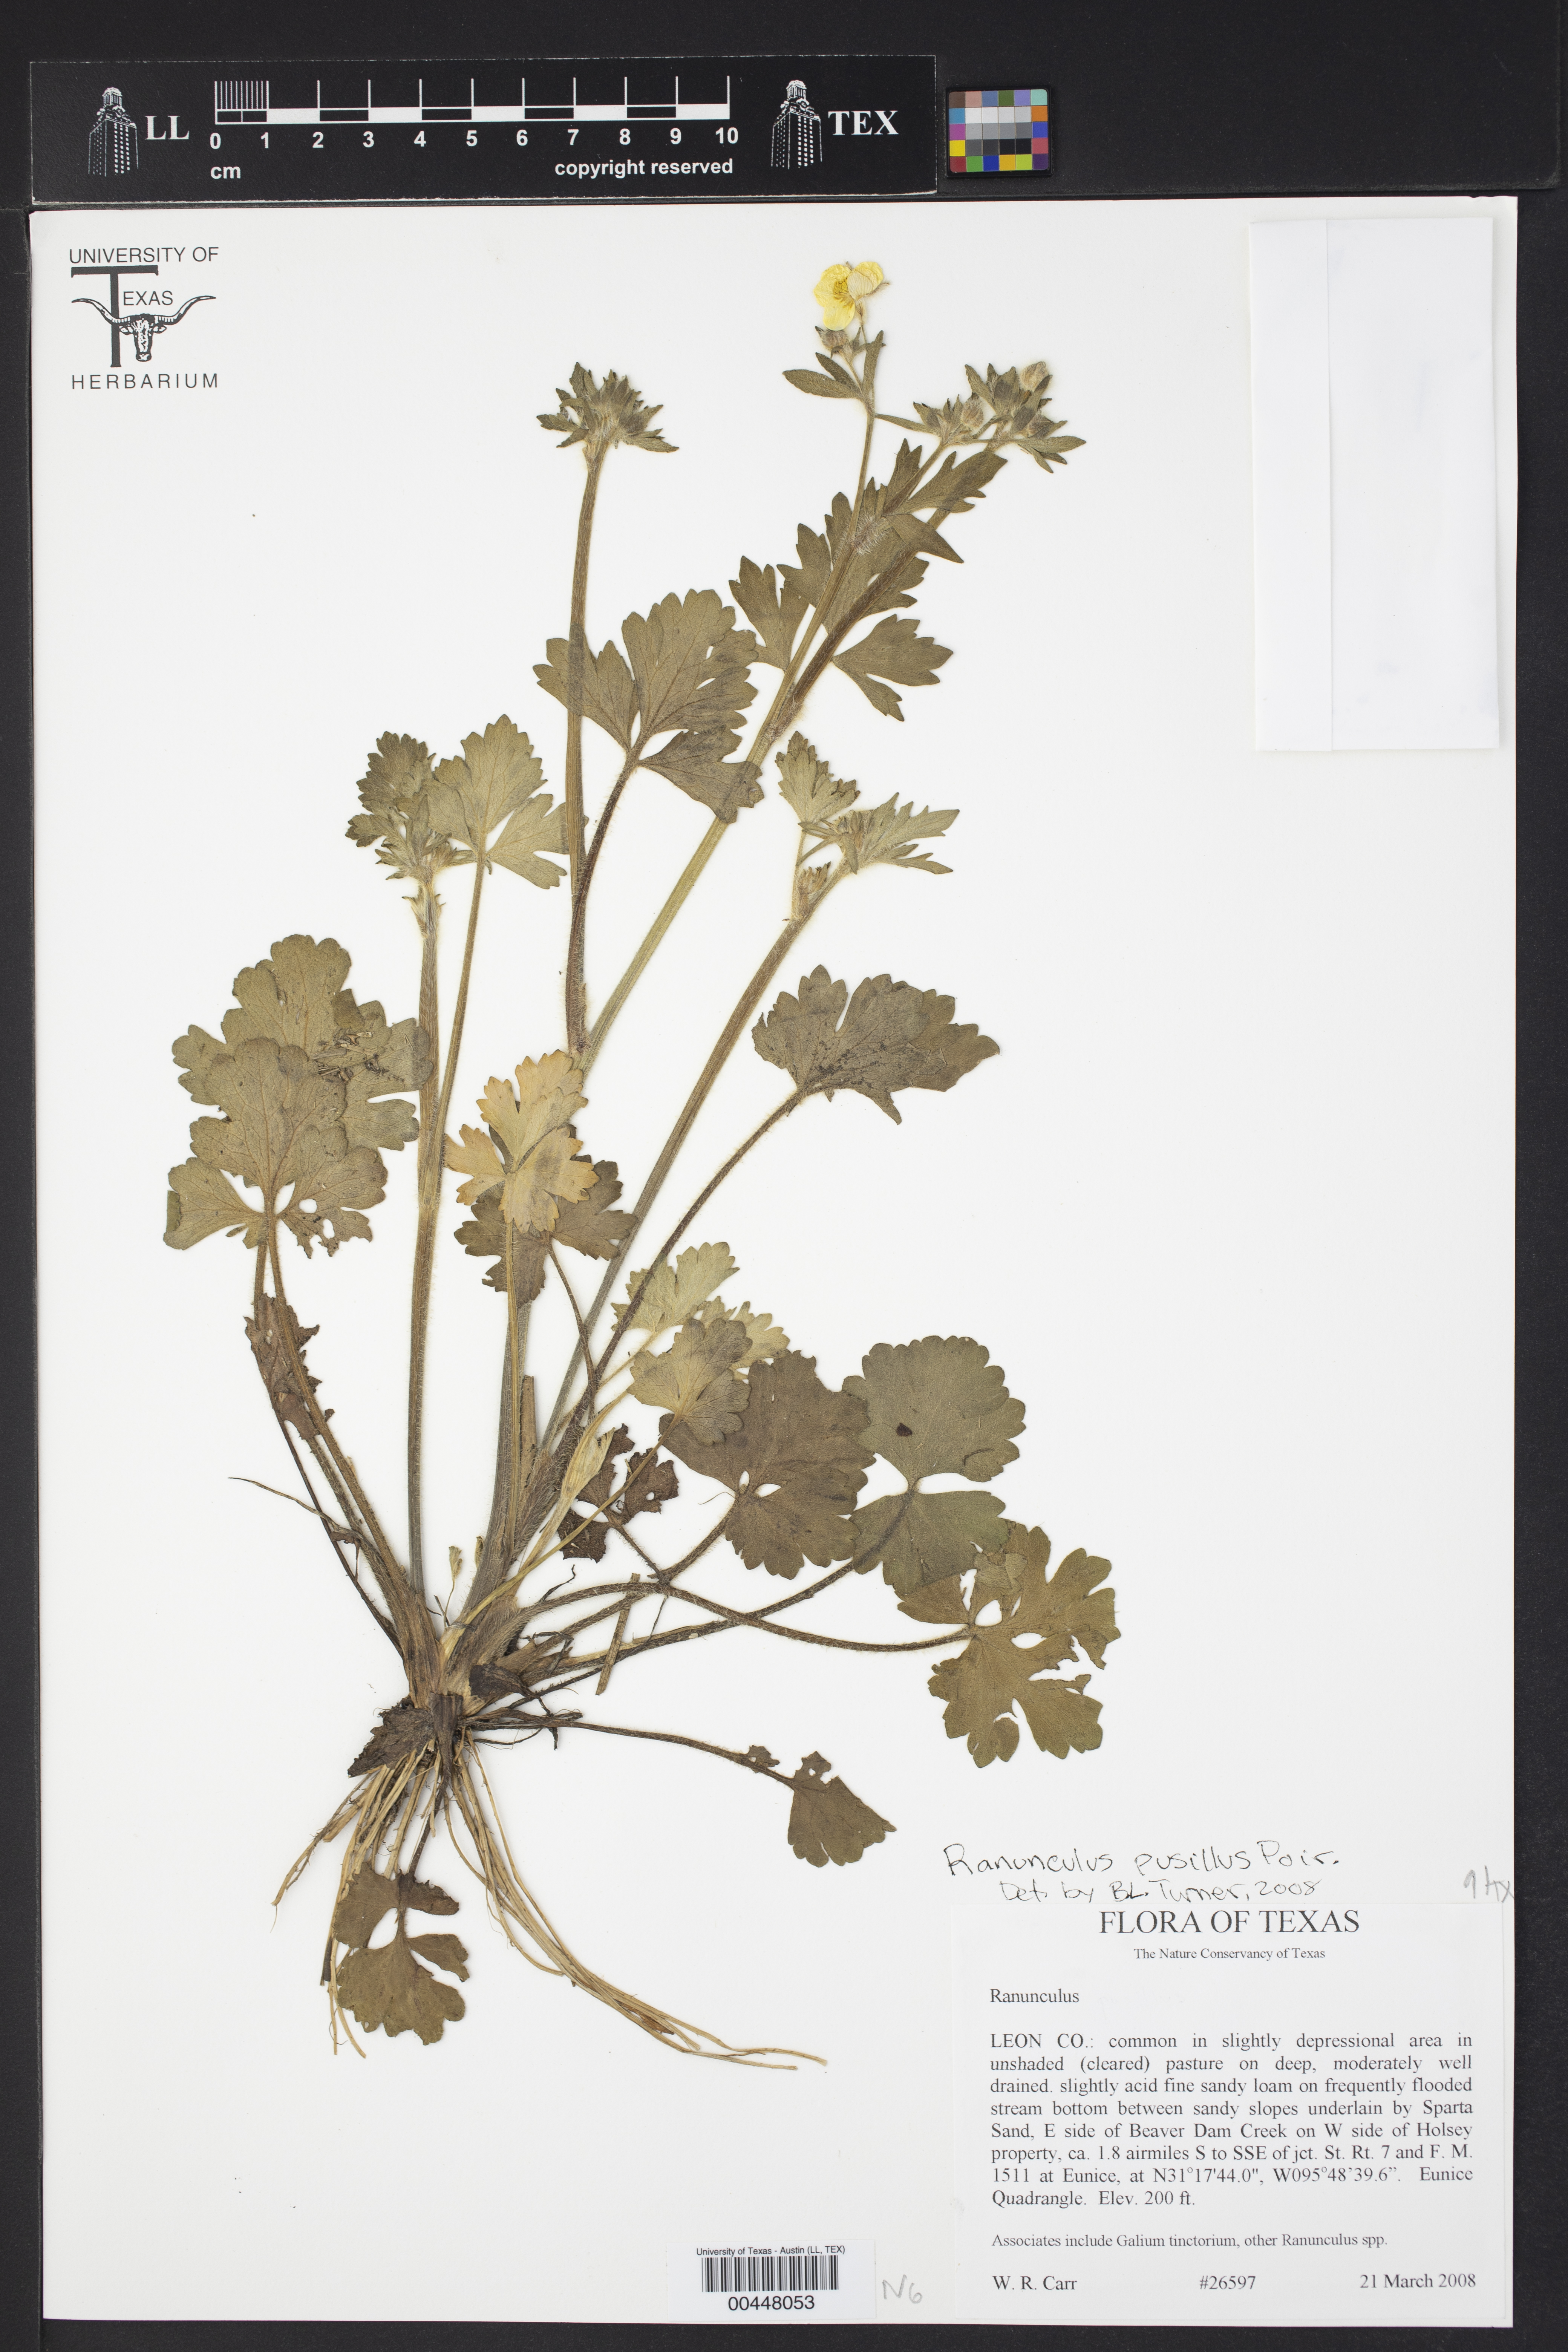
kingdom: Plantae
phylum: Tracheophyta
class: Magnoliopsida
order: Ranunculales
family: Ranunculaceae
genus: Ranunculus
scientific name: Ranunculus pusillus
